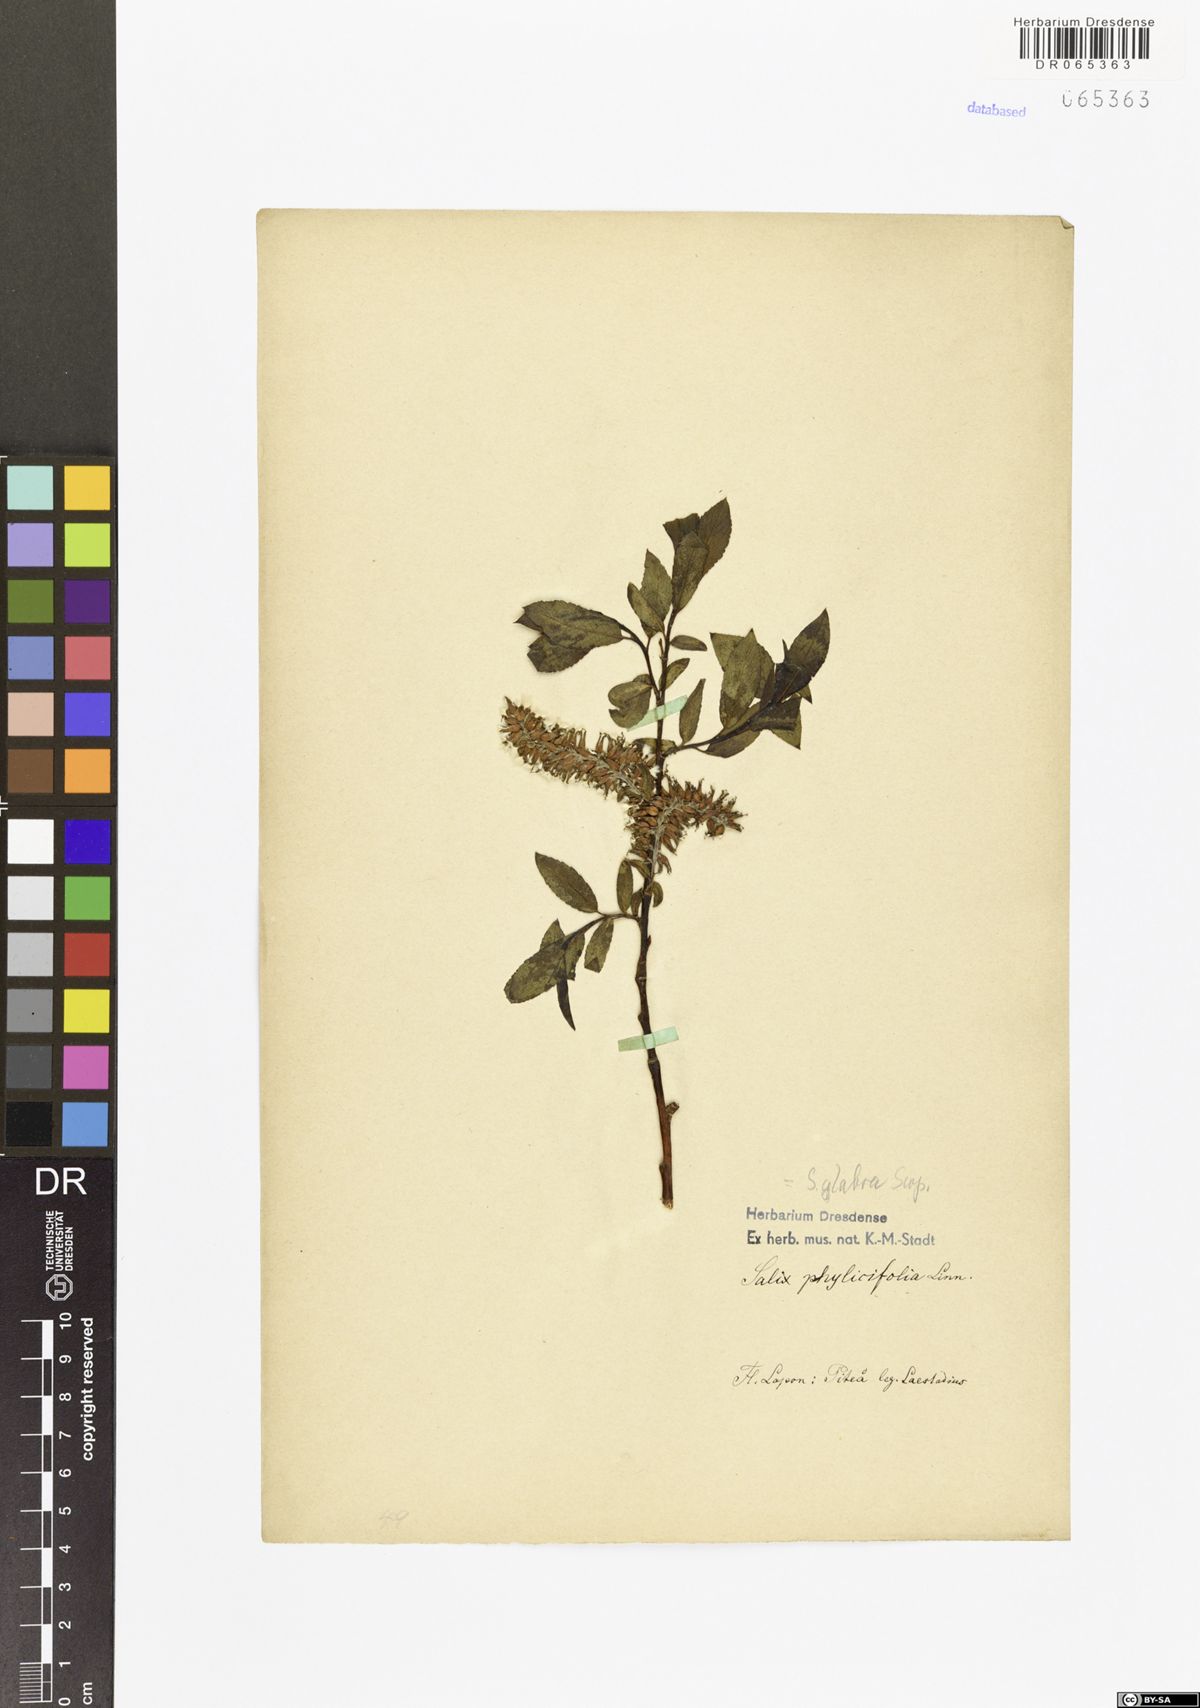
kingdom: Plantae
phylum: Tracheophyta
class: Magnoliopsida
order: Malpighiales
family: Salicaceae
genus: Salix
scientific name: Salix phylicifolia
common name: Tea-leaved willow
